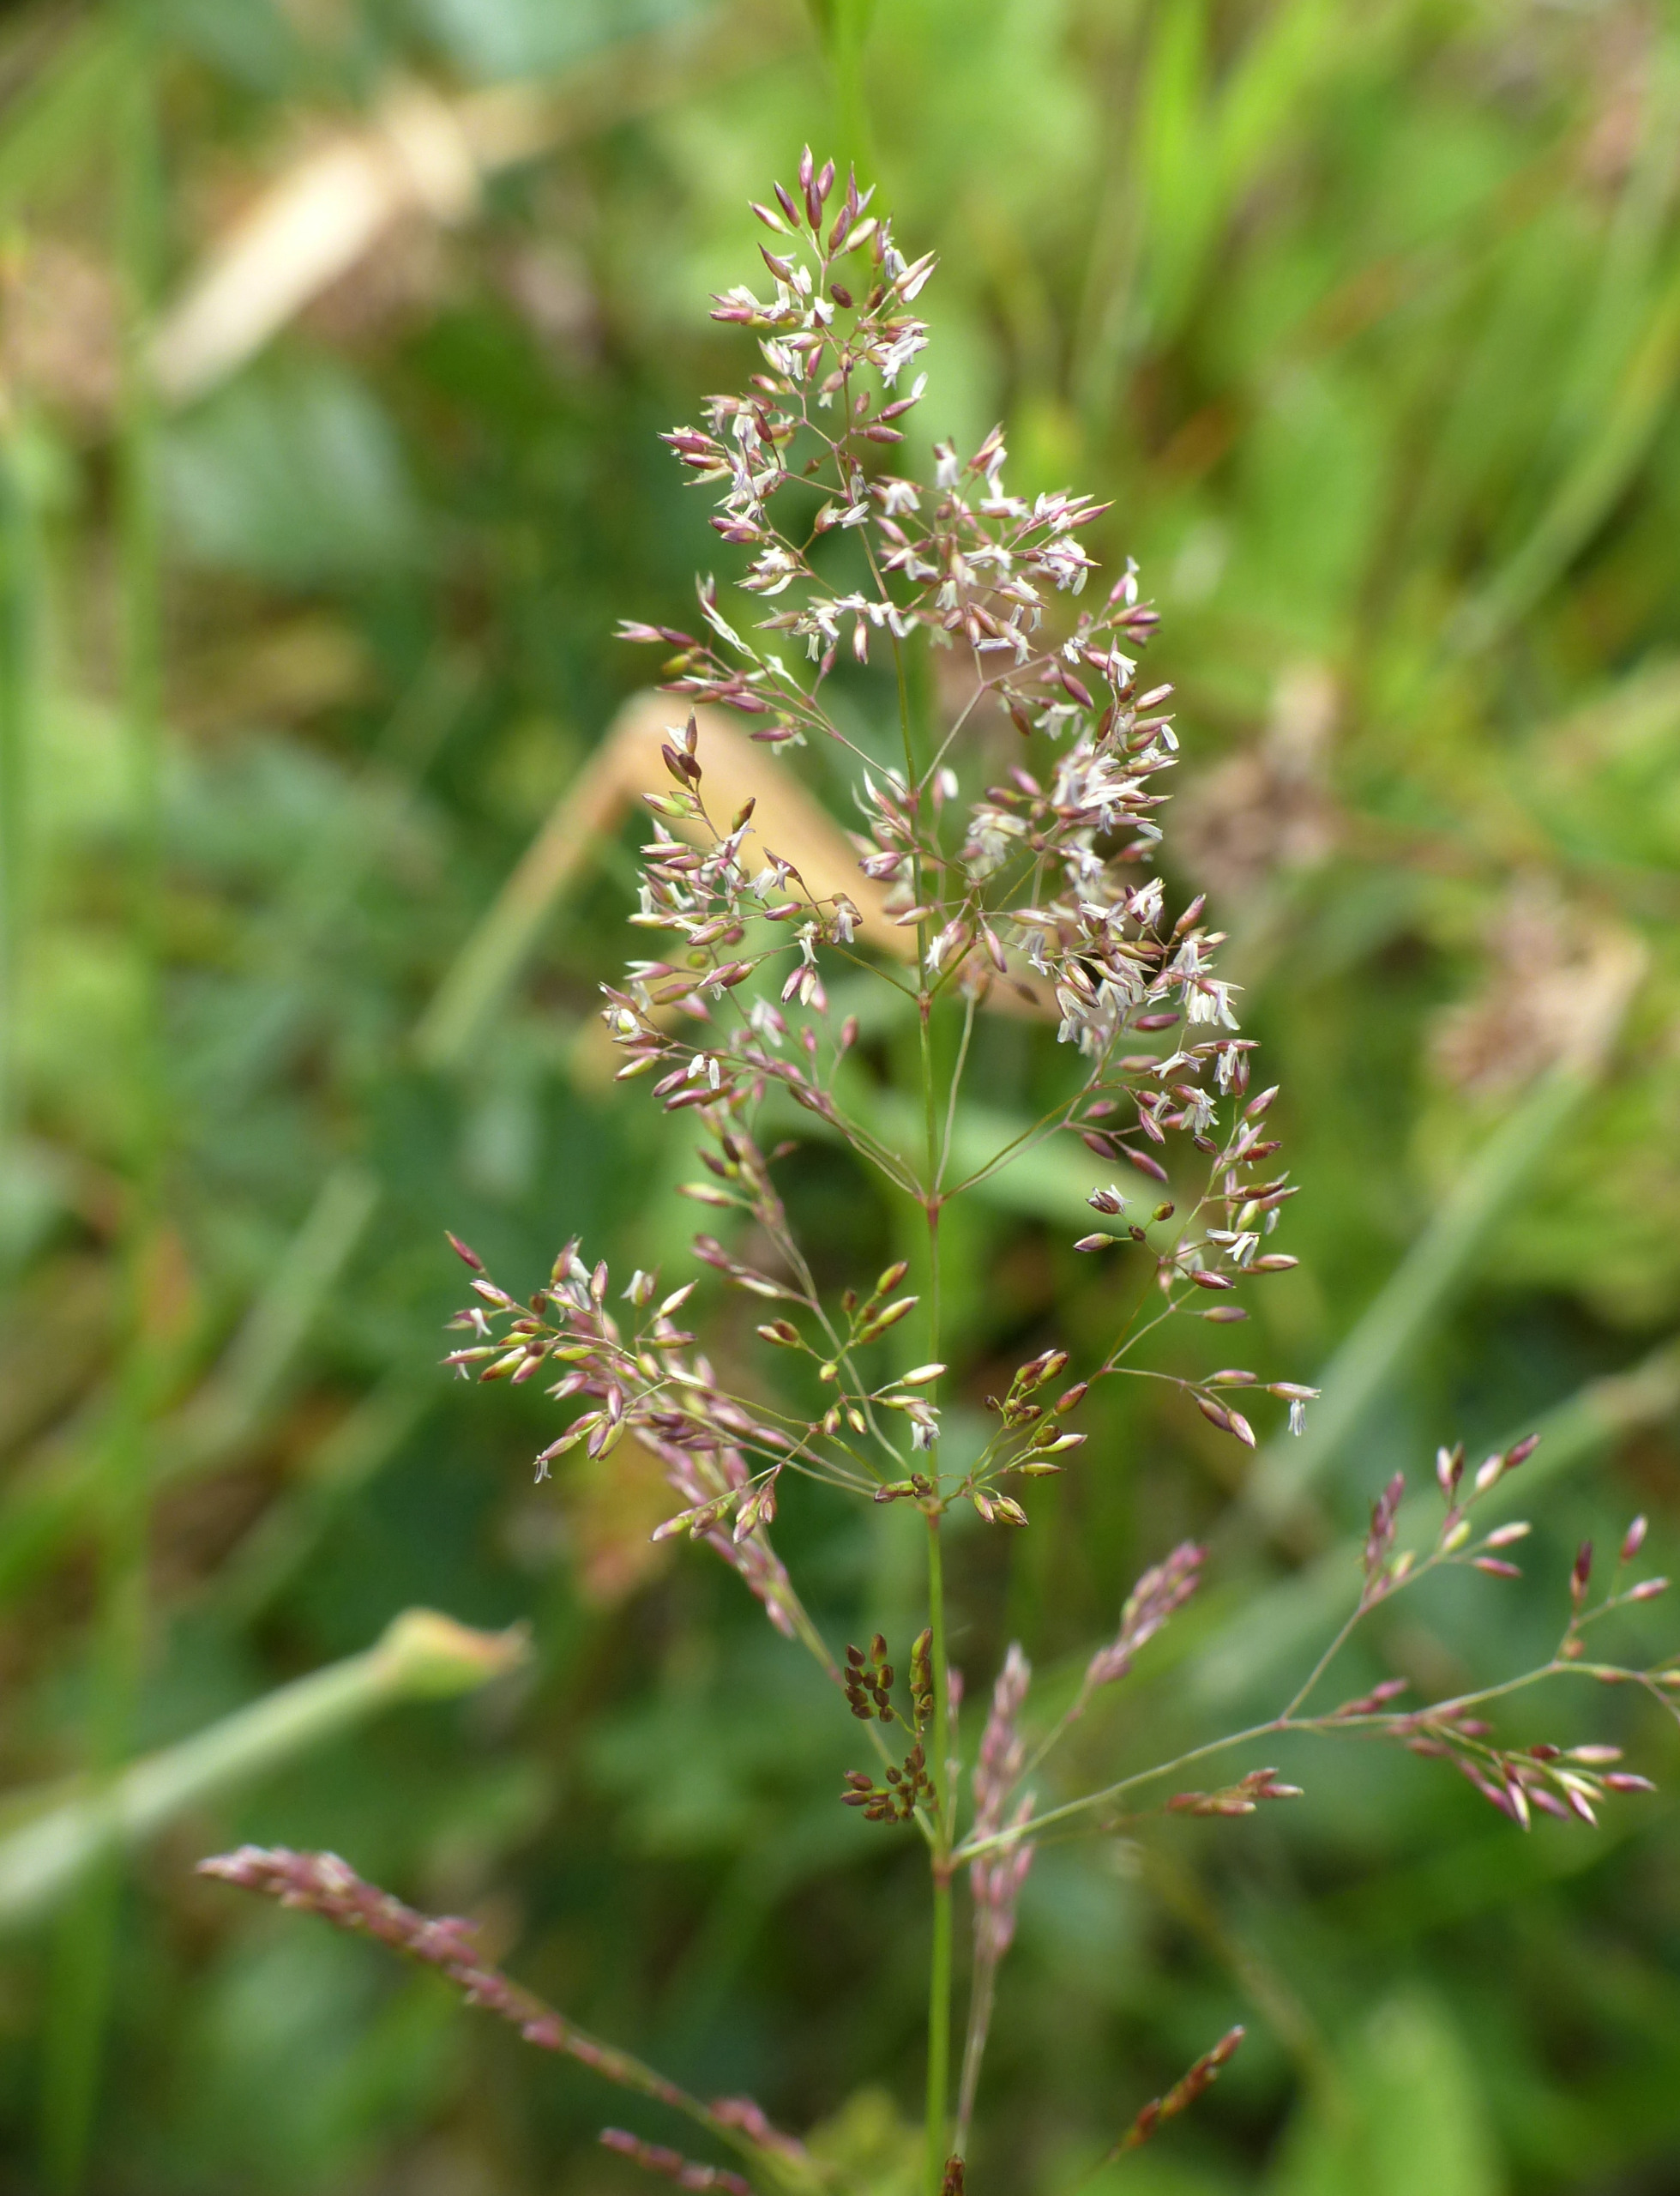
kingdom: Plantae
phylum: Tracheophyta
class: Liliopsida
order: Poales
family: Poaceae
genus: Agrostis
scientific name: Agrostis capillaris
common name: Almindelig hvene
